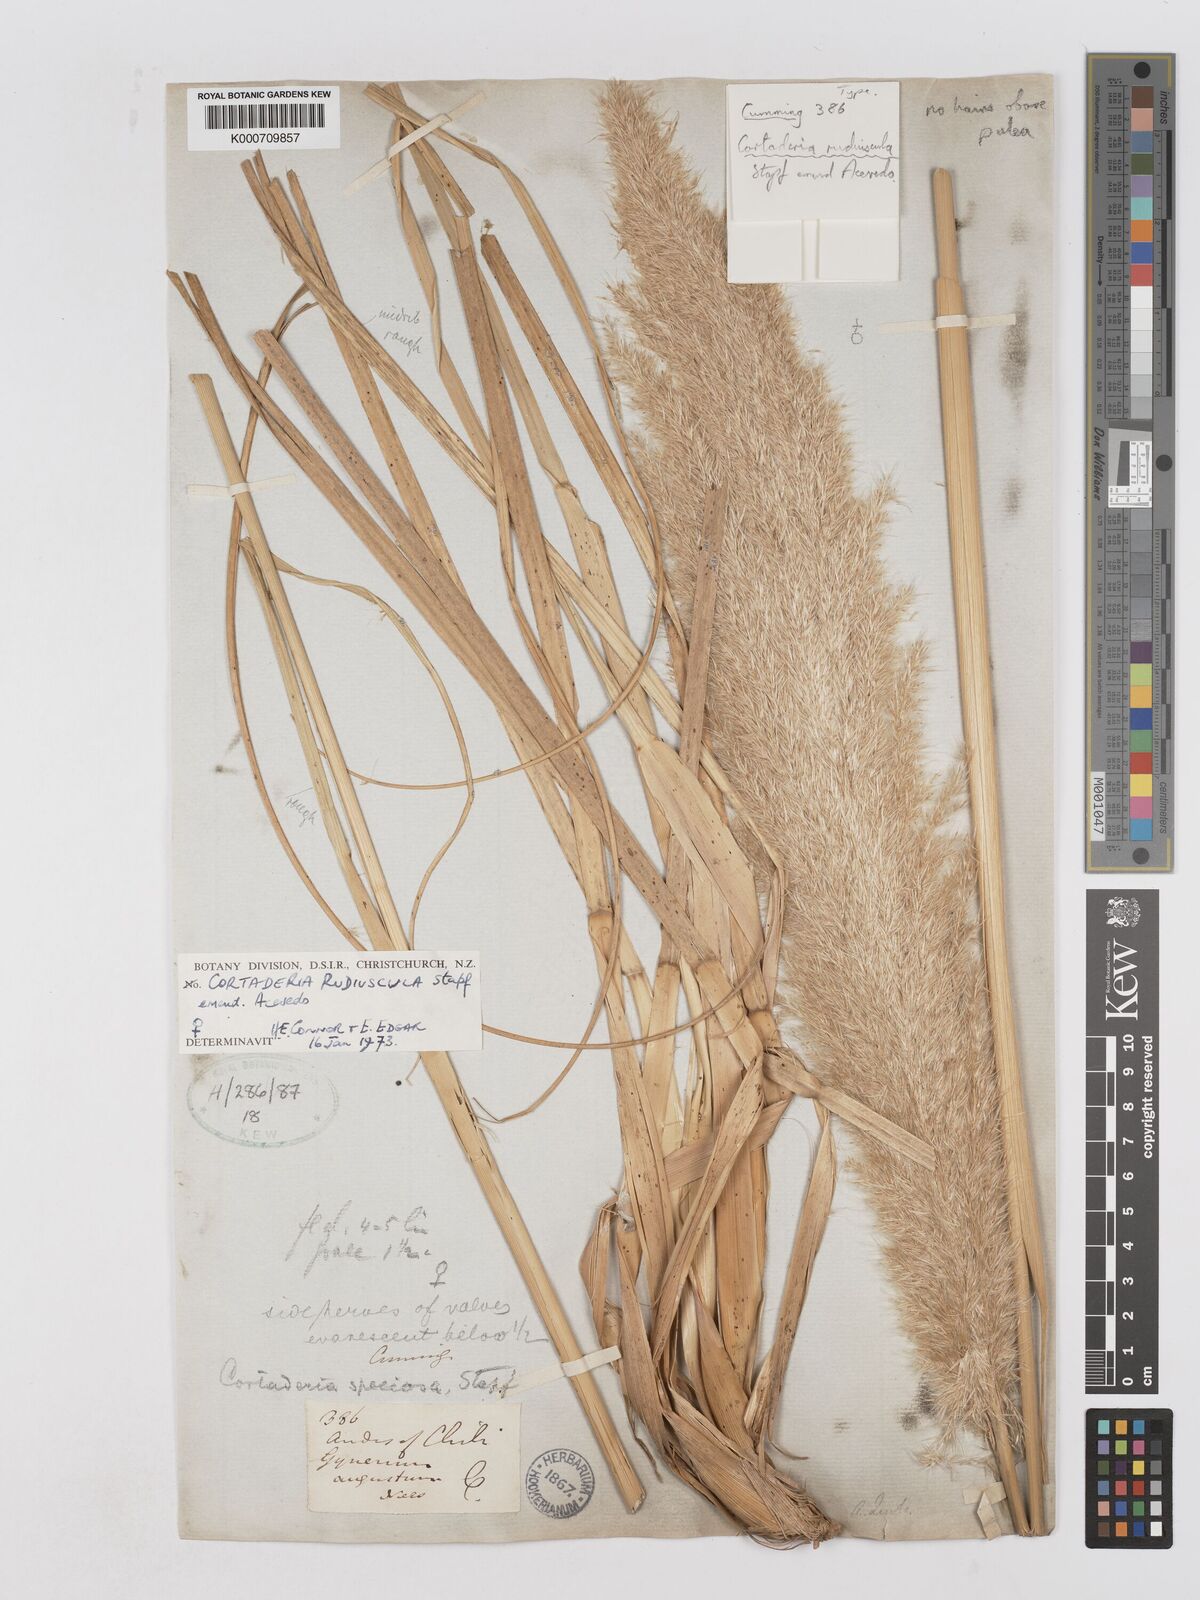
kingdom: Plantae
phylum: Tracheophyta
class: Liliopsida
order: Poales
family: Poaceae
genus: Cortaderia
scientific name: Cortaderia rudiuscula
